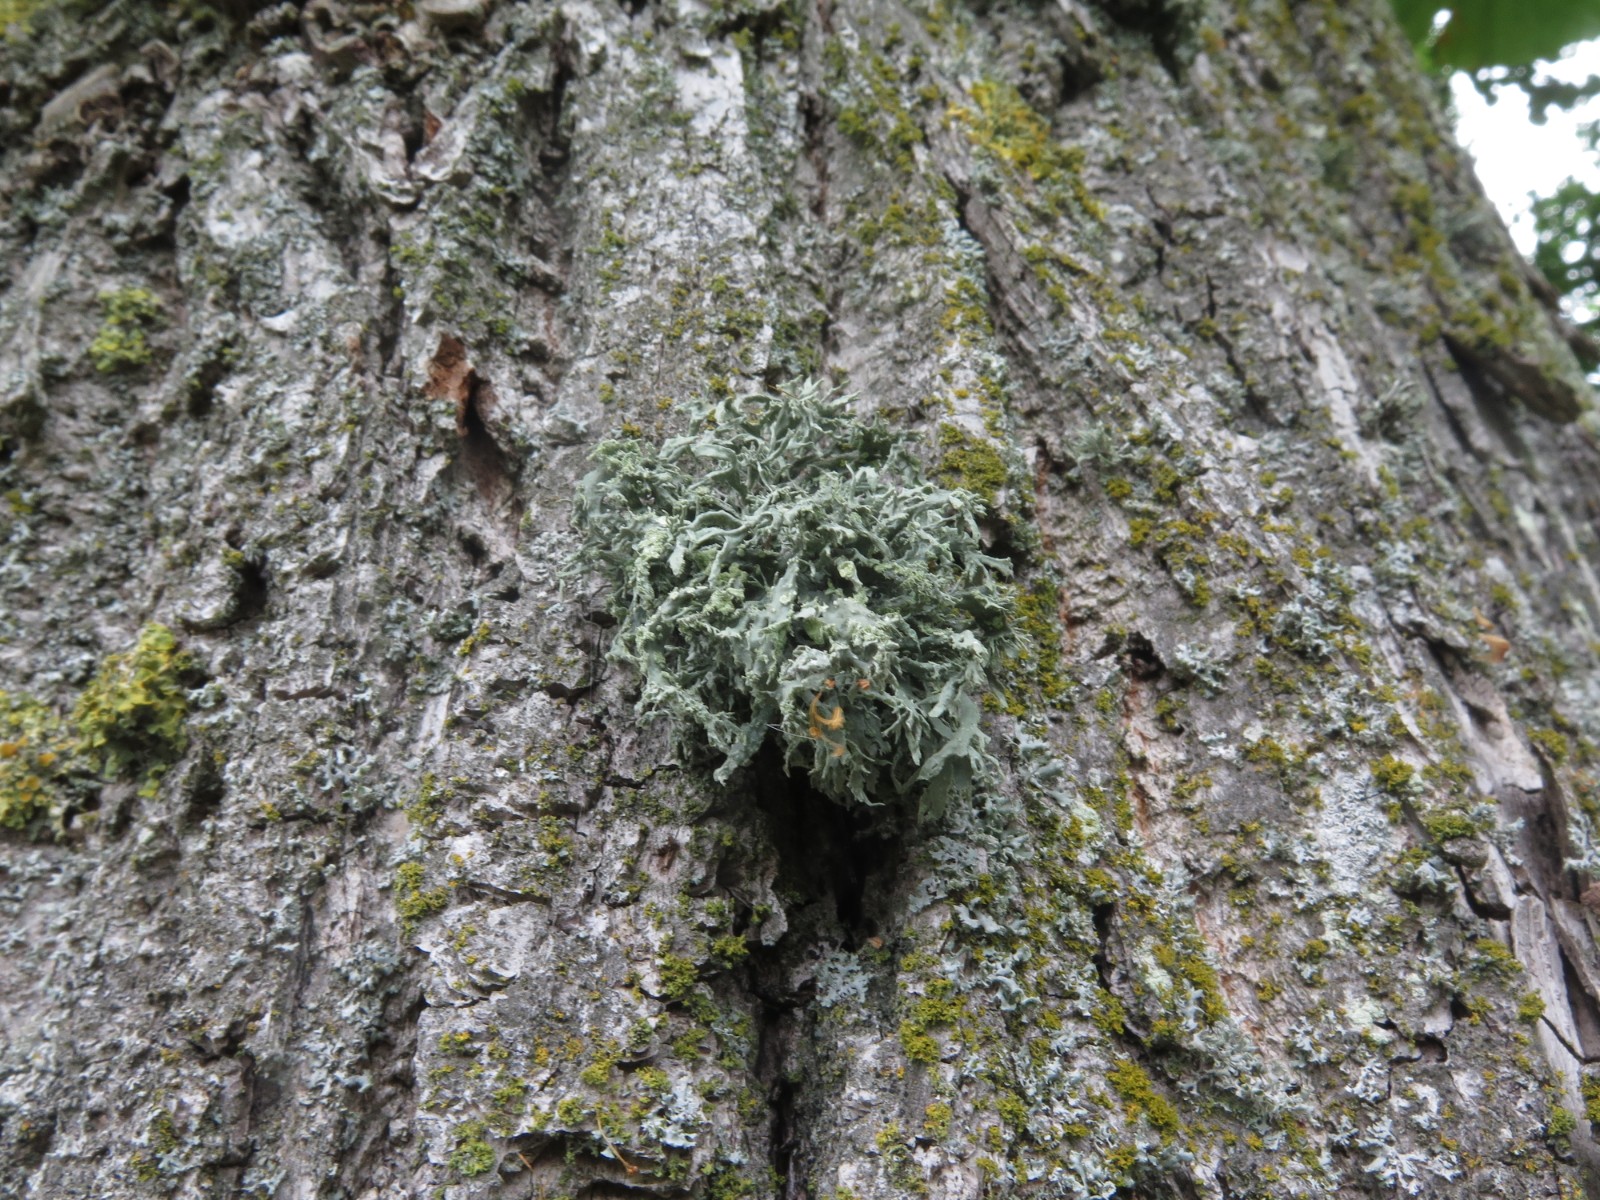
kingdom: Fungi
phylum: Ascomycota
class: Lecanoromycetes
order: Lecanorales
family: Ramalinaceae
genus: Ramalina
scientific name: Ramalina farinacea
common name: melet grenlav
